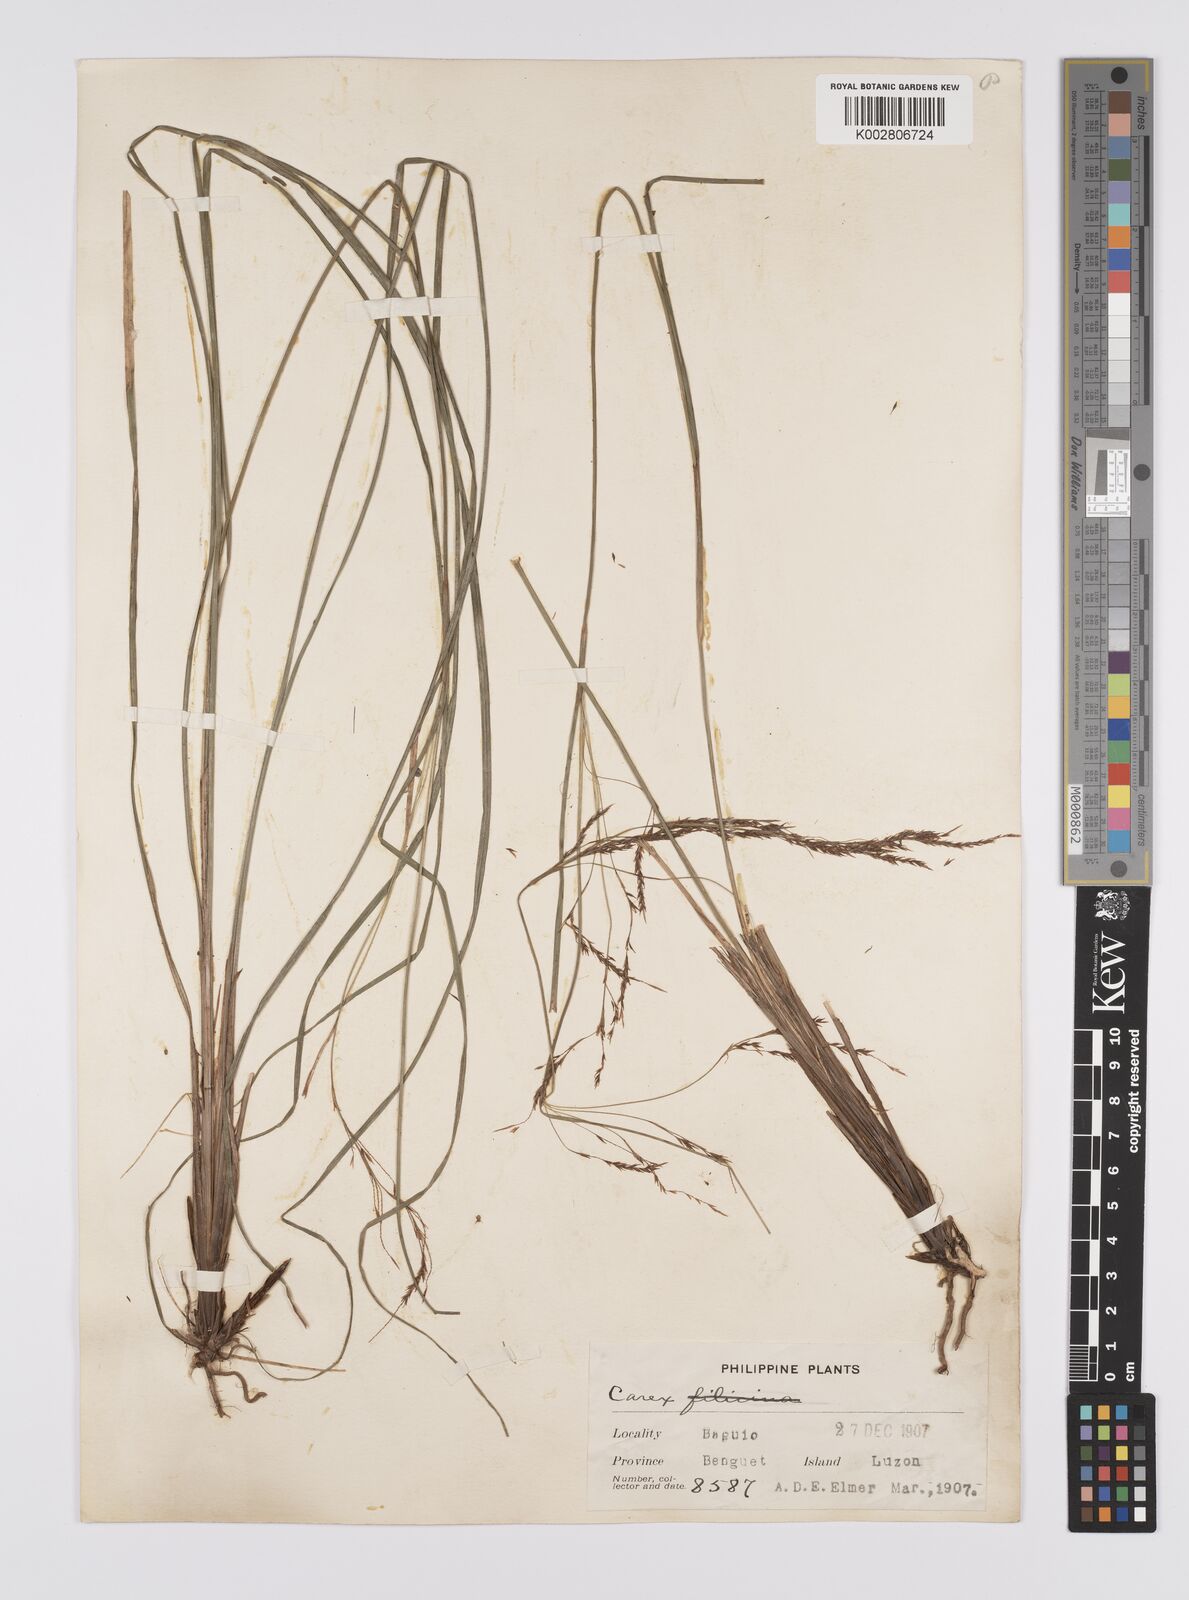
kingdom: Plantae
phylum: Tracheophyta
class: Liliopsida
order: Poales
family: Cyperaceae
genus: Carex
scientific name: Carex brunnea
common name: Greater brown sedge
